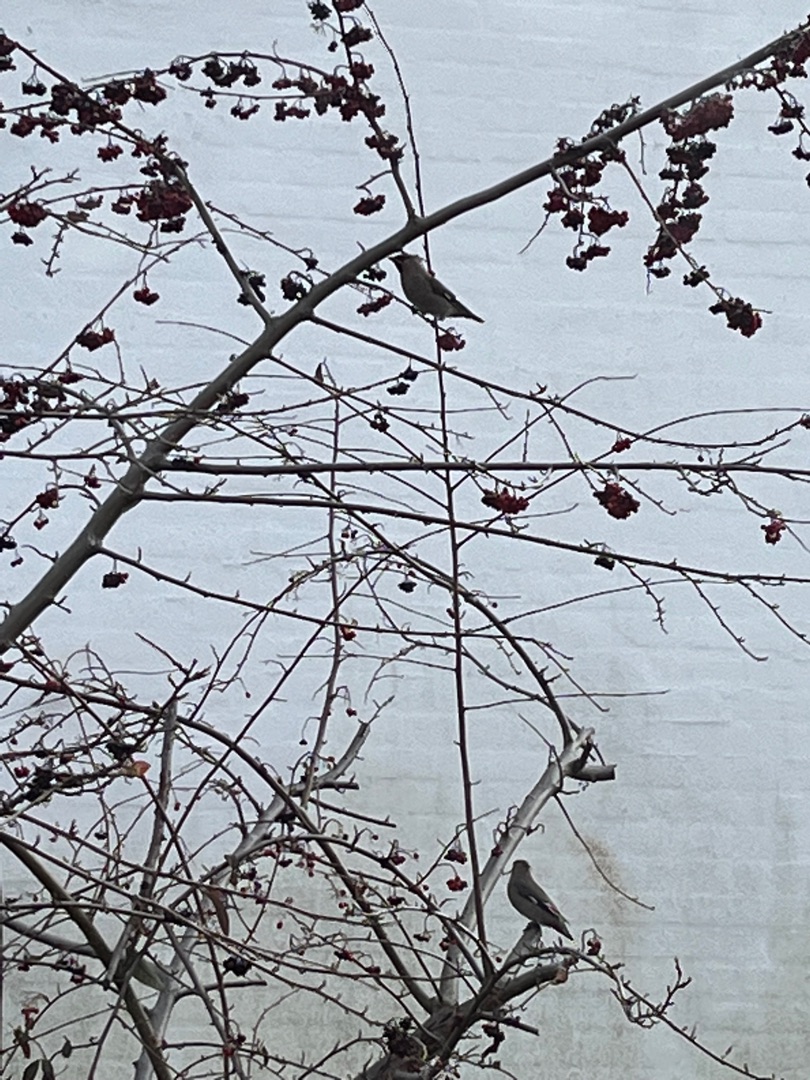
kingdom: Animalia
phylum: Chordata
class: Aves
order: Passeriformes
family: Bombycillidae
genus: Bombycilla
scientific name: Bombycilla garrulus
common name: Silkehale
